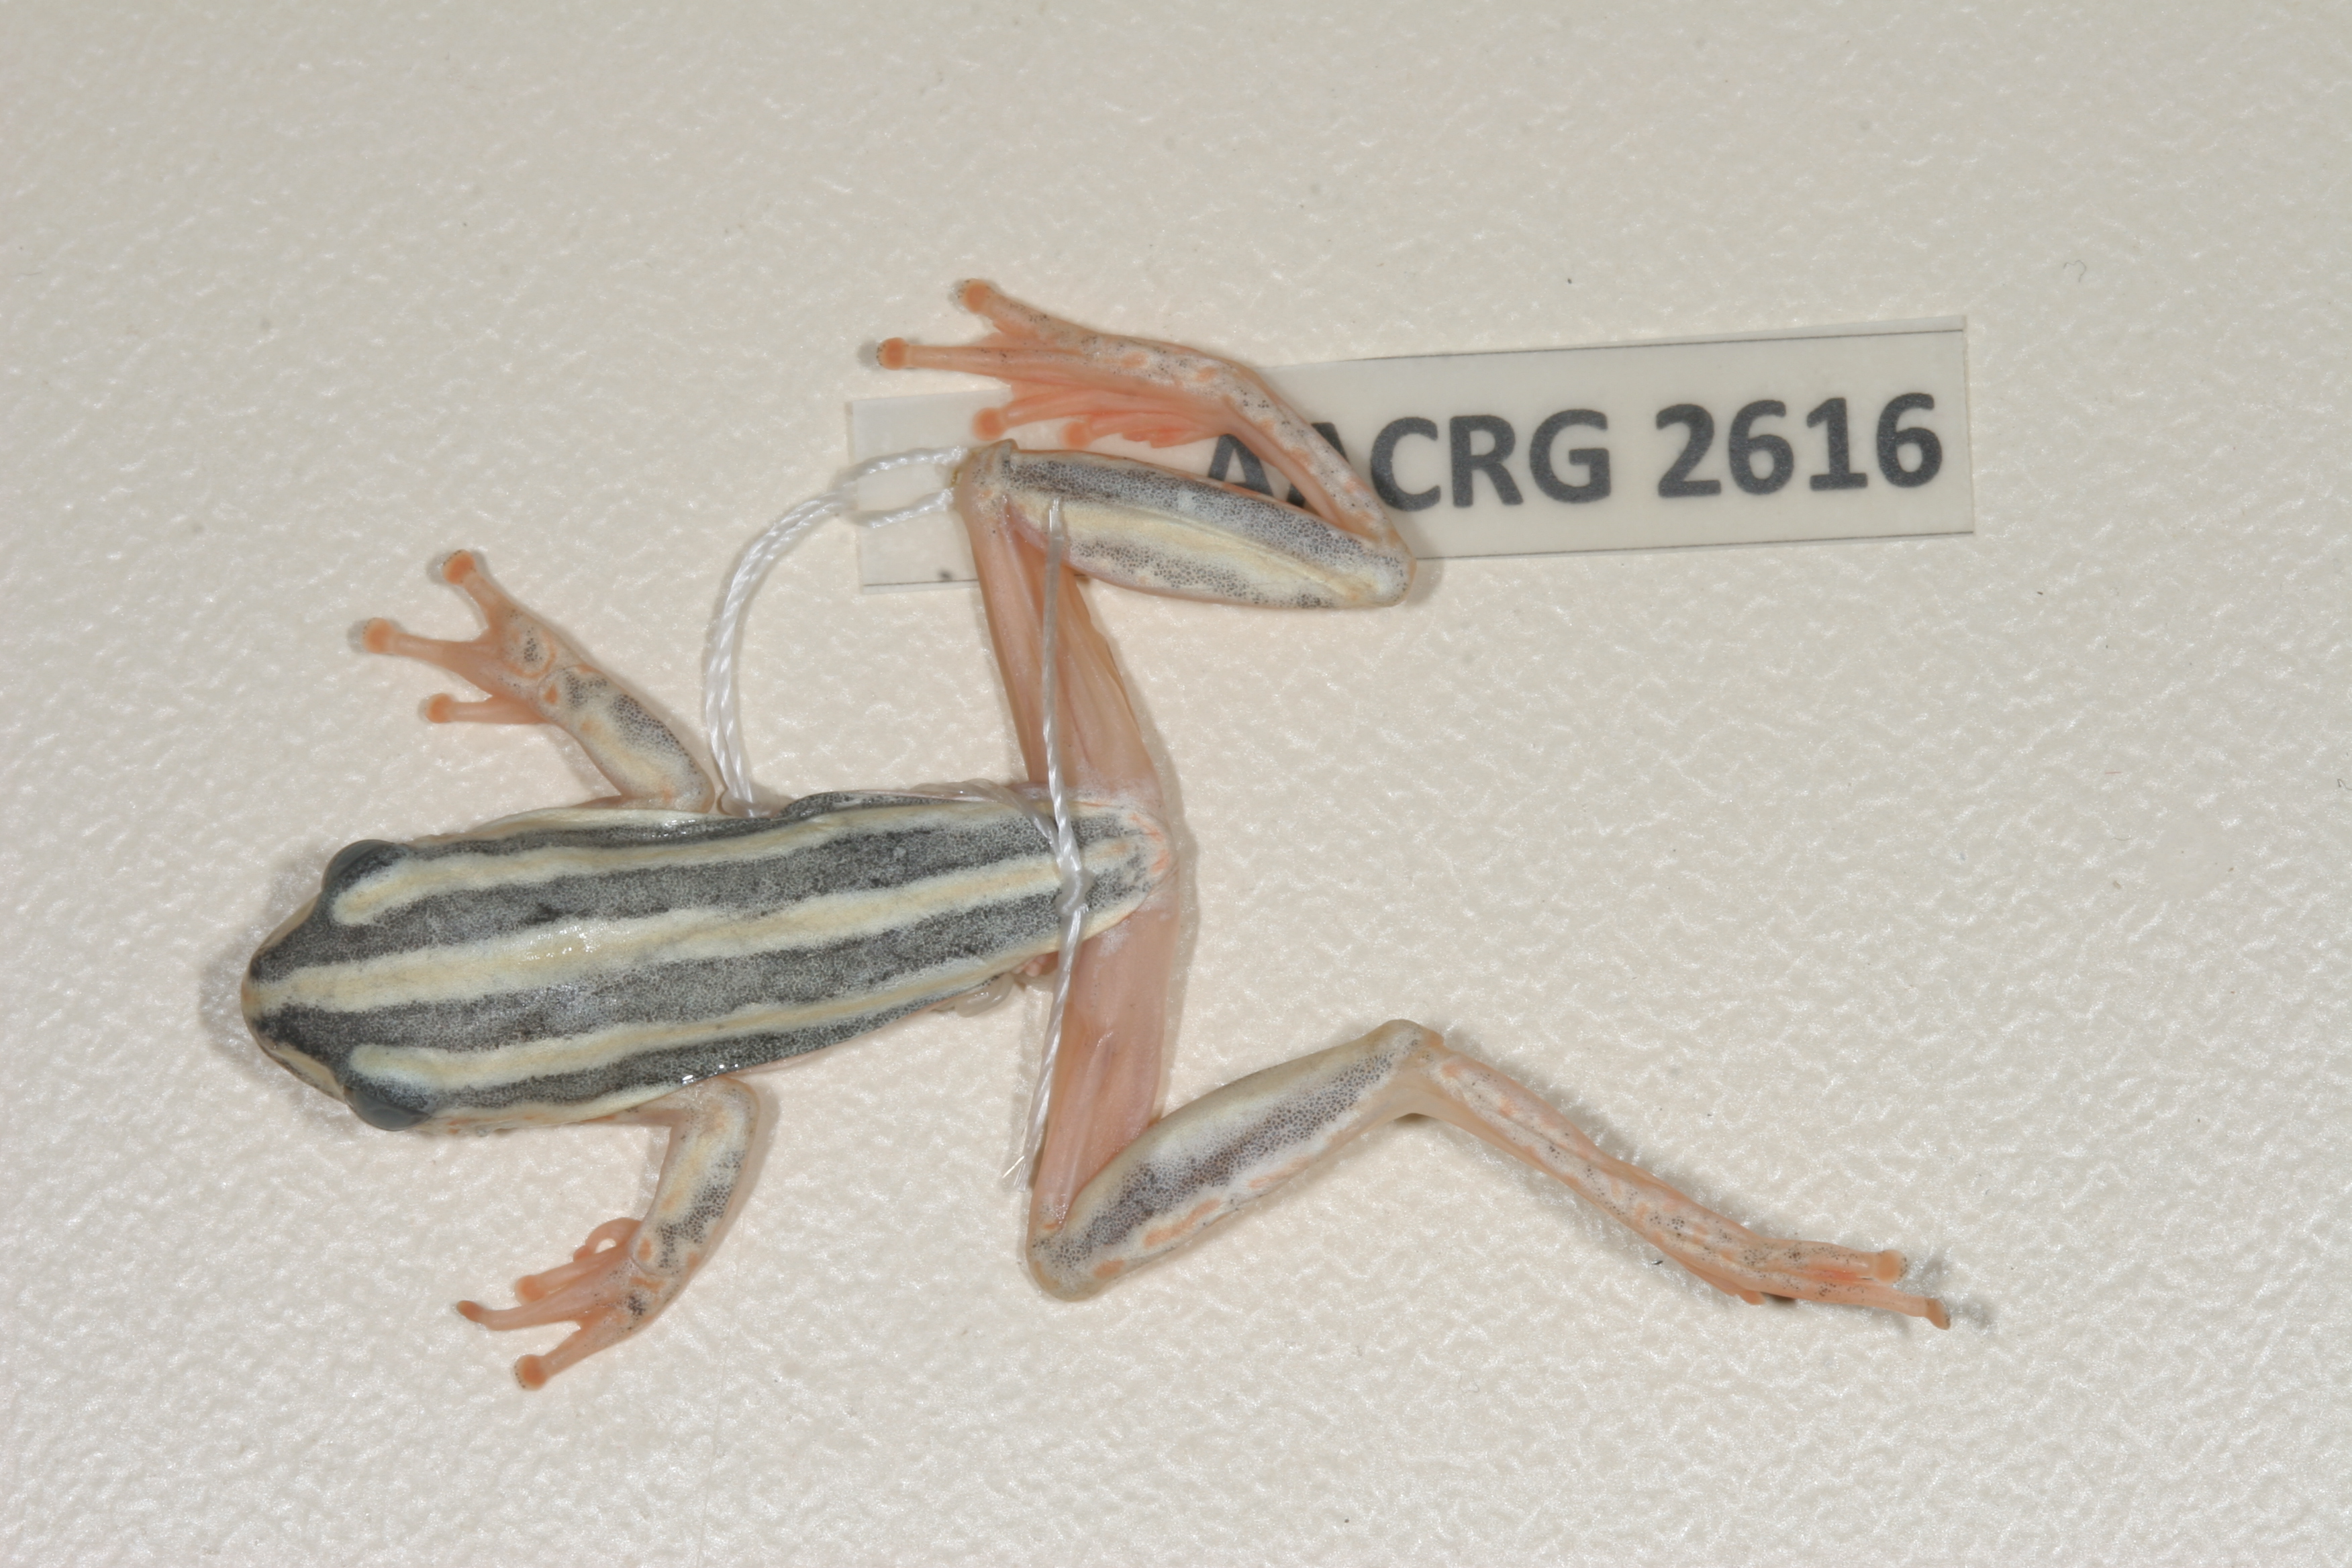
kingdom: Animalia
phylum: Chordata
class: Amphibia
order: Anura
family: Hyperoliidae
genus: Hyperolius
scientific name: Hyperolius marmoratus
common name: Painted reed frog
